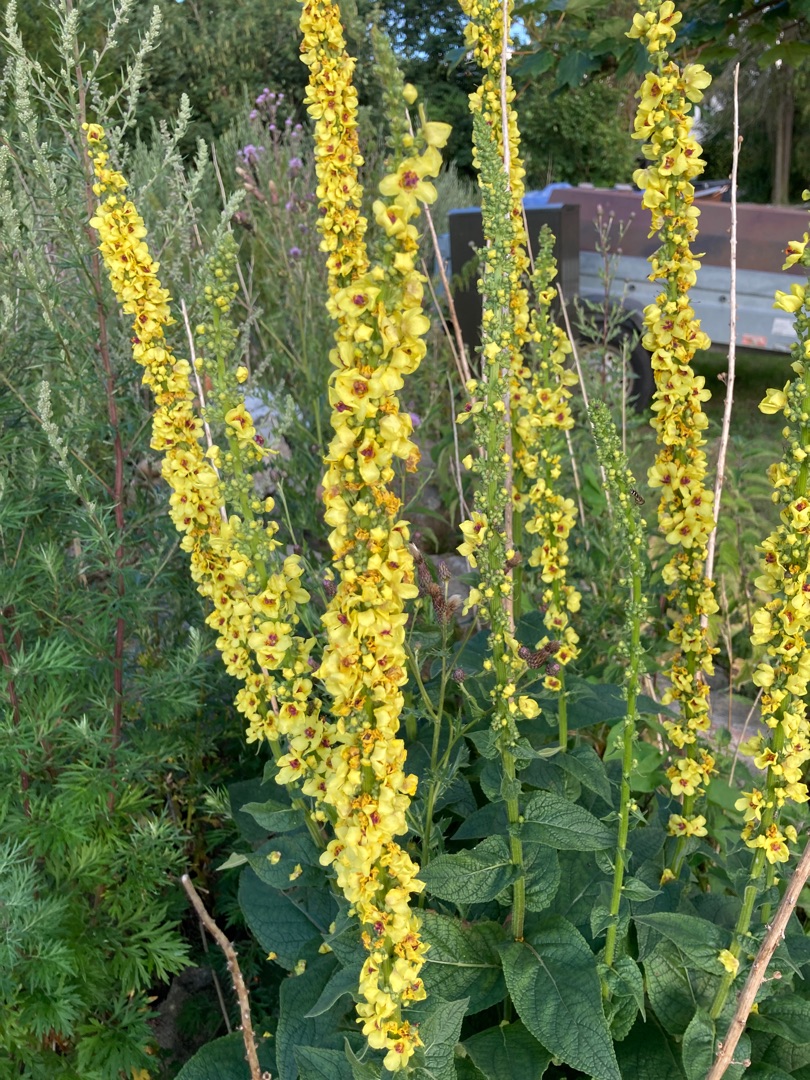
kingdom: Plantae
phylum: Tracheophyta
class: Magnoliopsida
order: Lamiales
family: Scrophulariaceae
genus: Verbascum
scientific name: Verbascum nigrum
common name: Mørk kongelys
